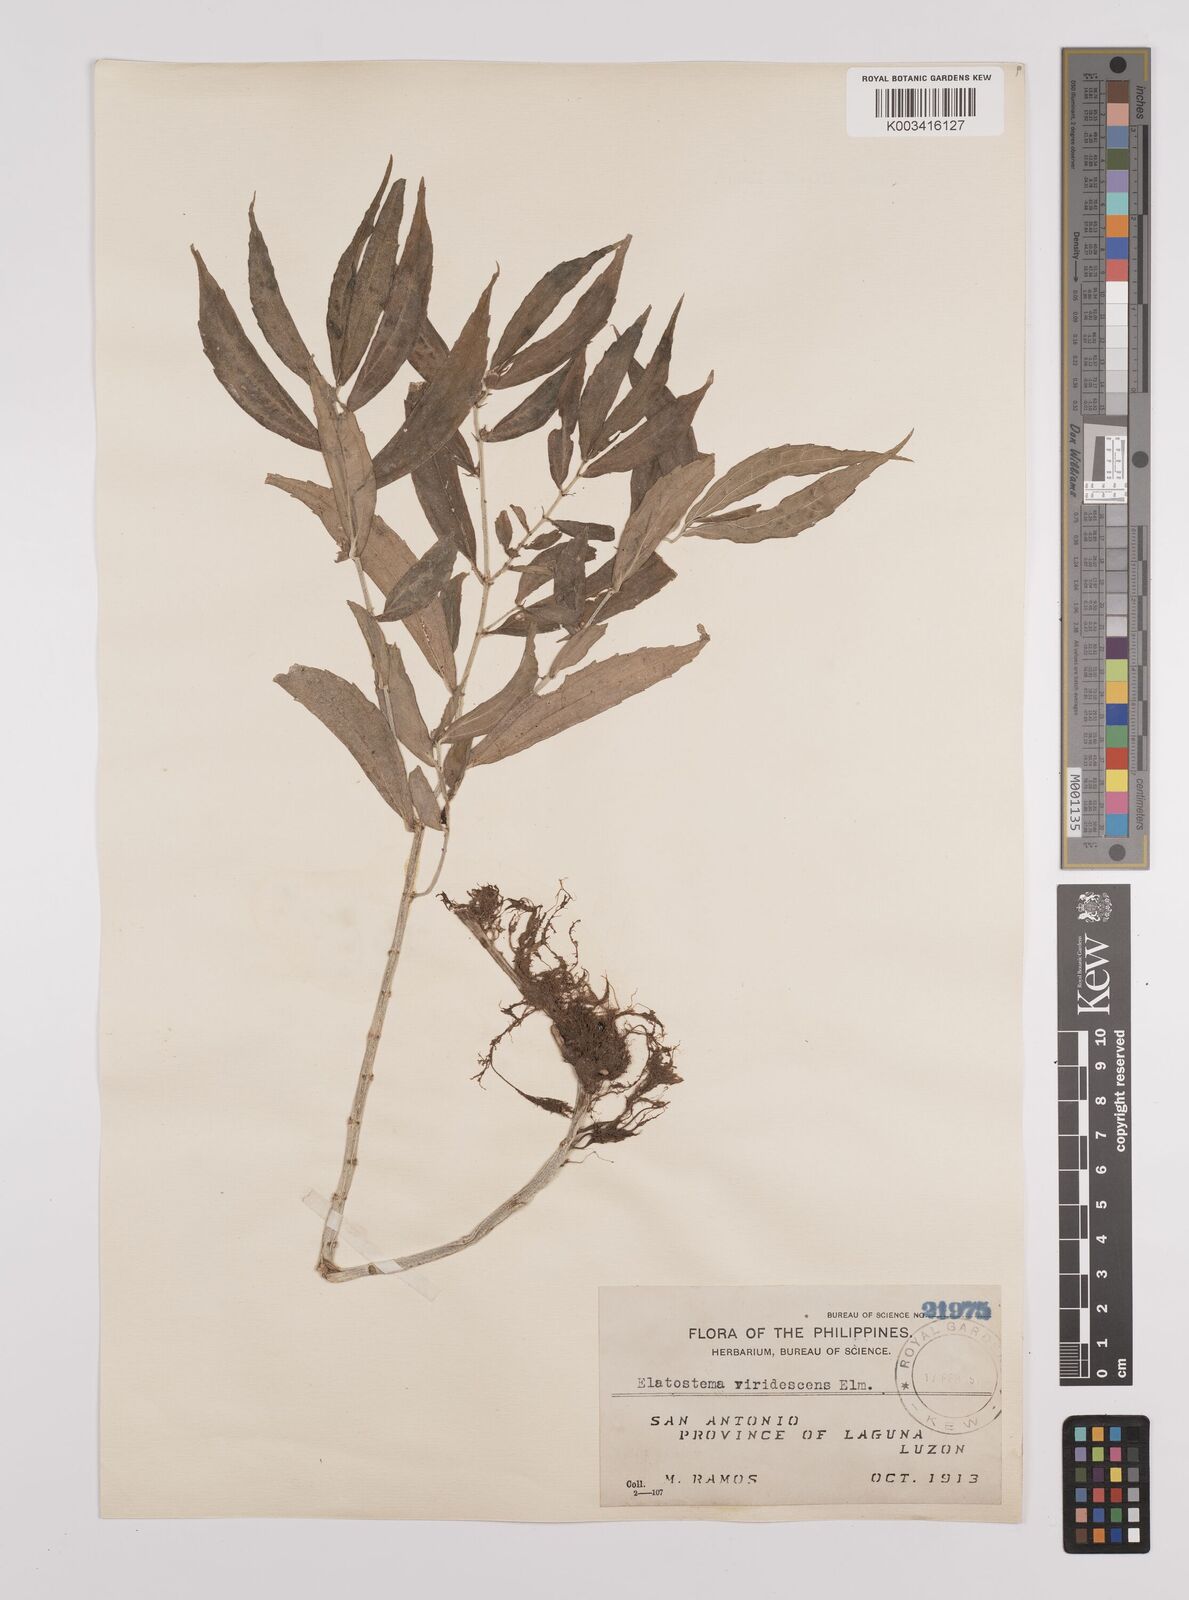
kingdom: Plantae
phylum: Tracheophyta
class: Magnoliopsida
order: Rosales
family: Urticaceae
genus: Elatostema
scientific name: Elatostema viridescens
